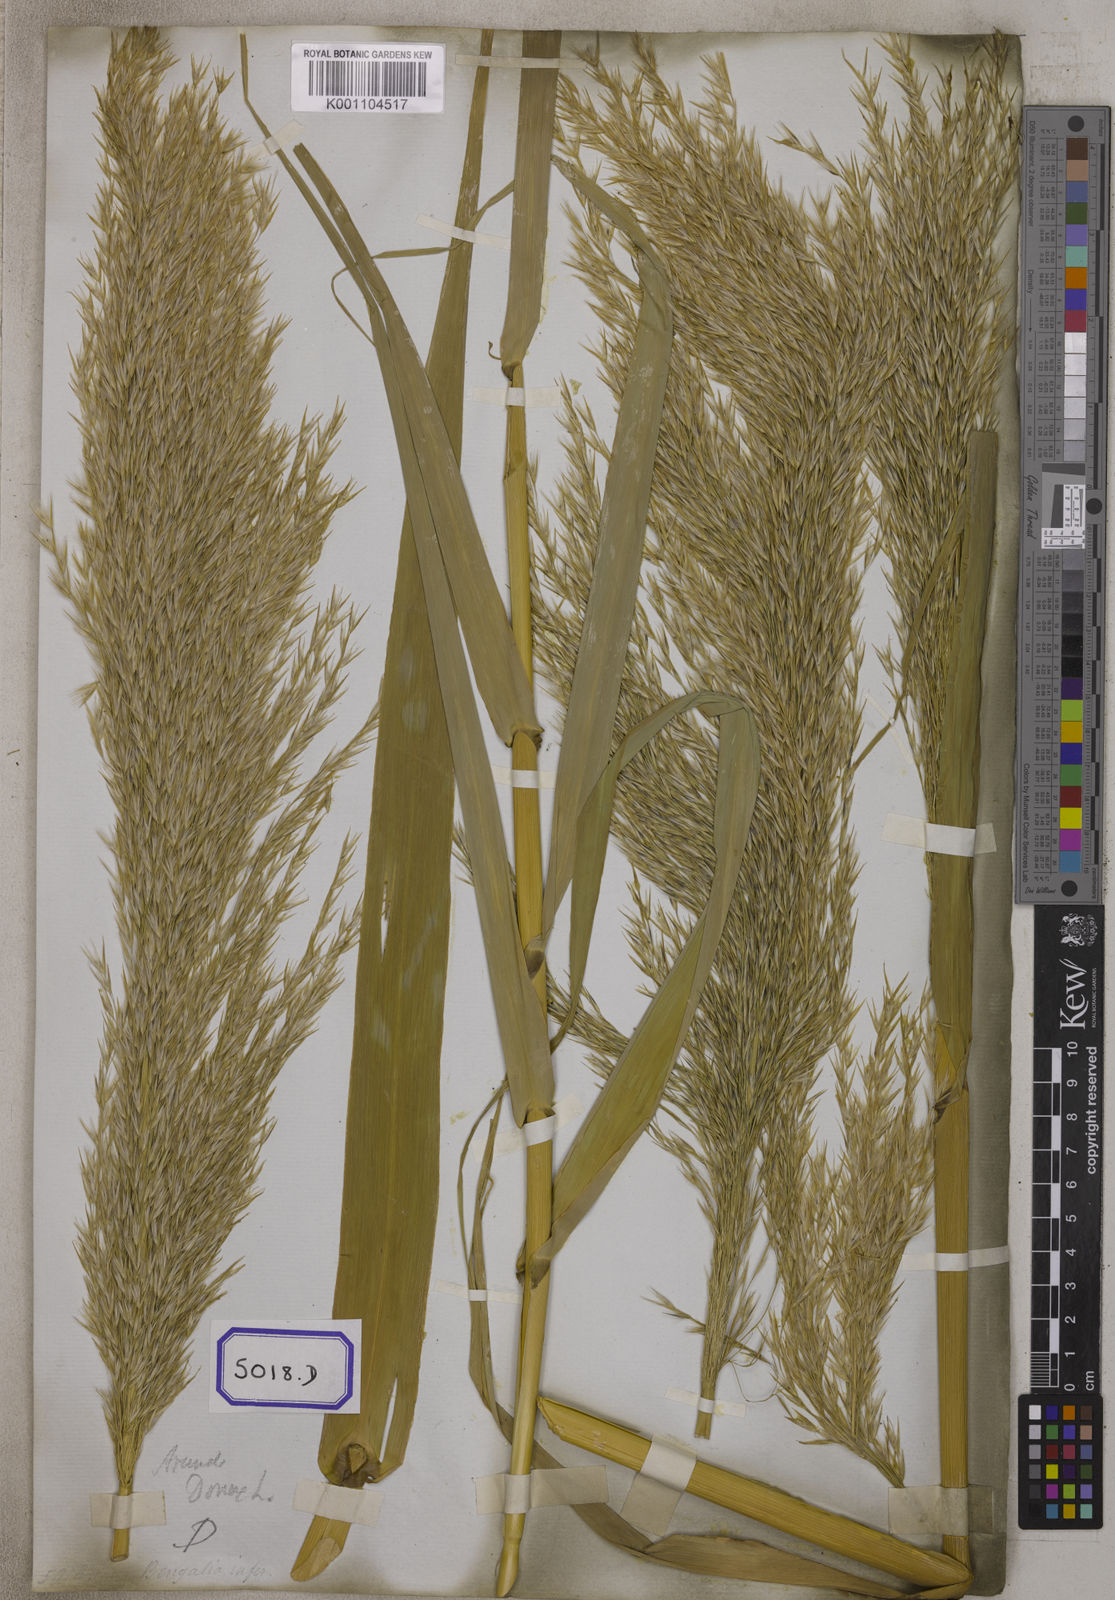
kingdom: Plantae
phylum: Tracheophyta
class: Liliopsida
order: Poales
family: Poaceae
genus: Arundo
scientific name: Arundo
